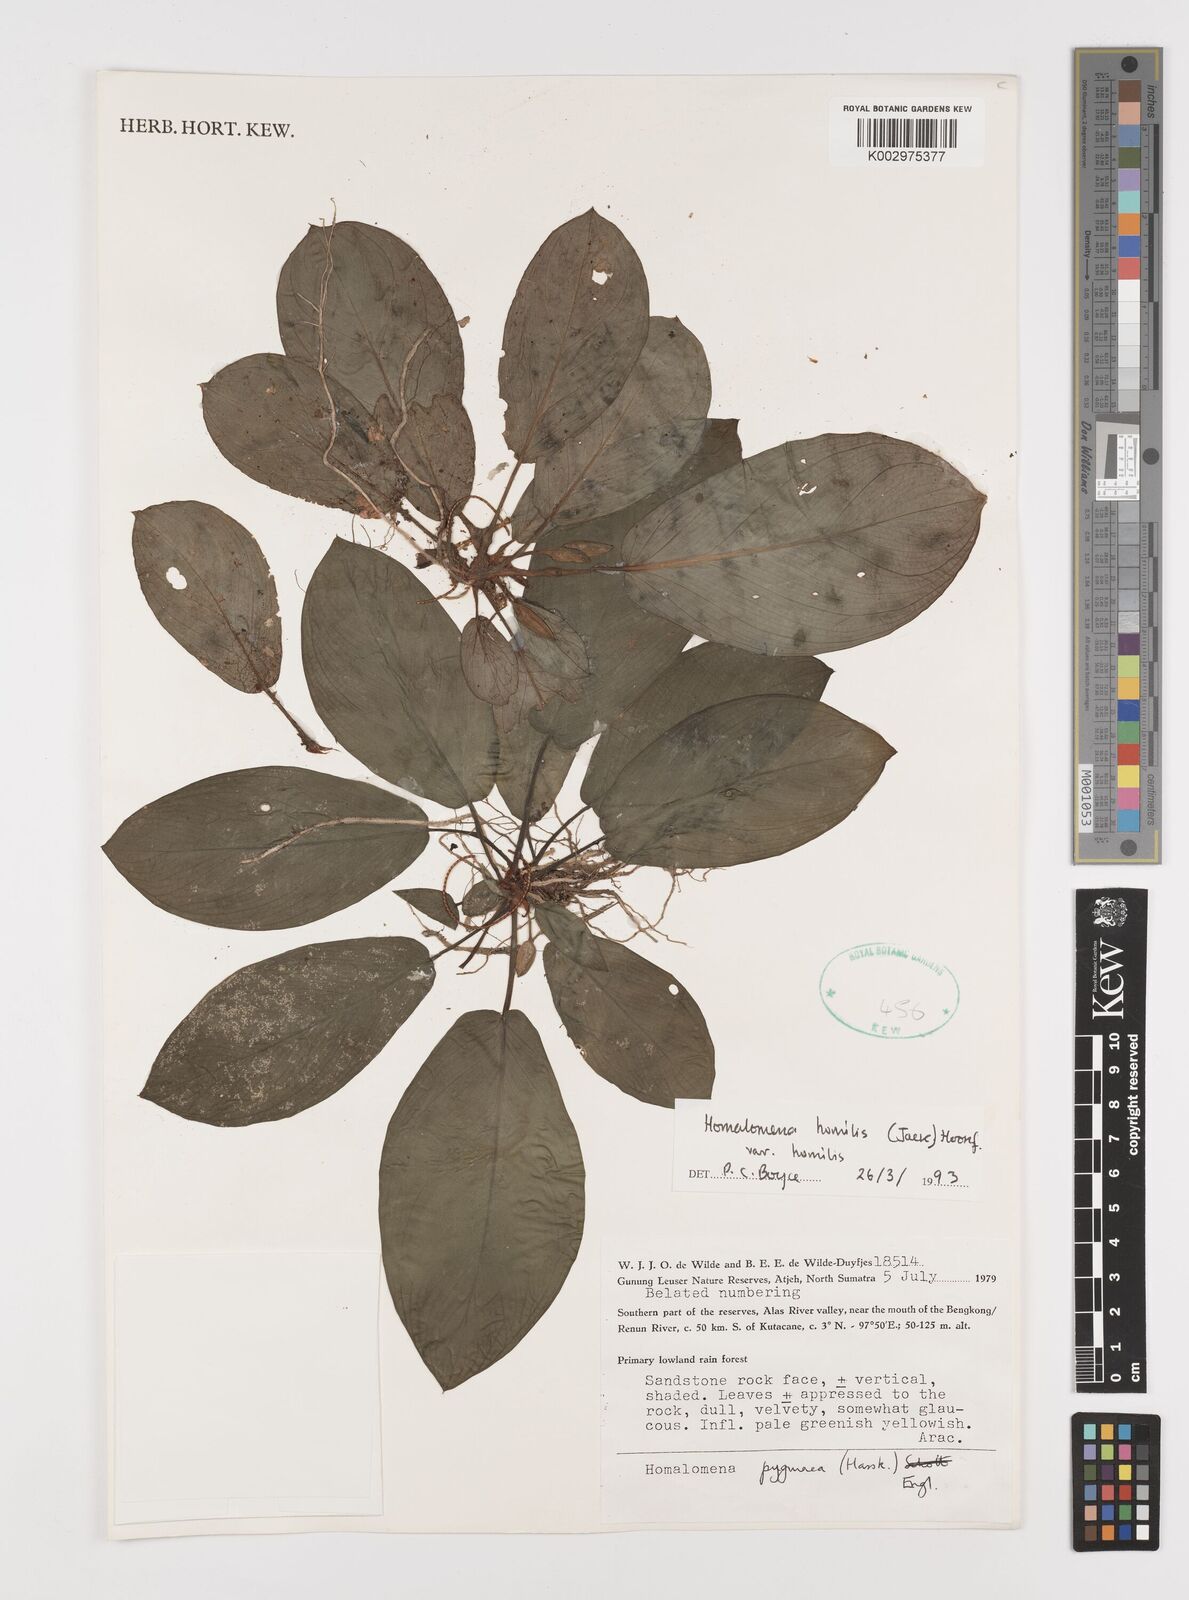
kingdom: Plantae
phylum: Tracheophyta
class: Liliopsida
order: Alismatales
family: Araceae
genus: Homalomena
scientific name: Homalomena humilis
